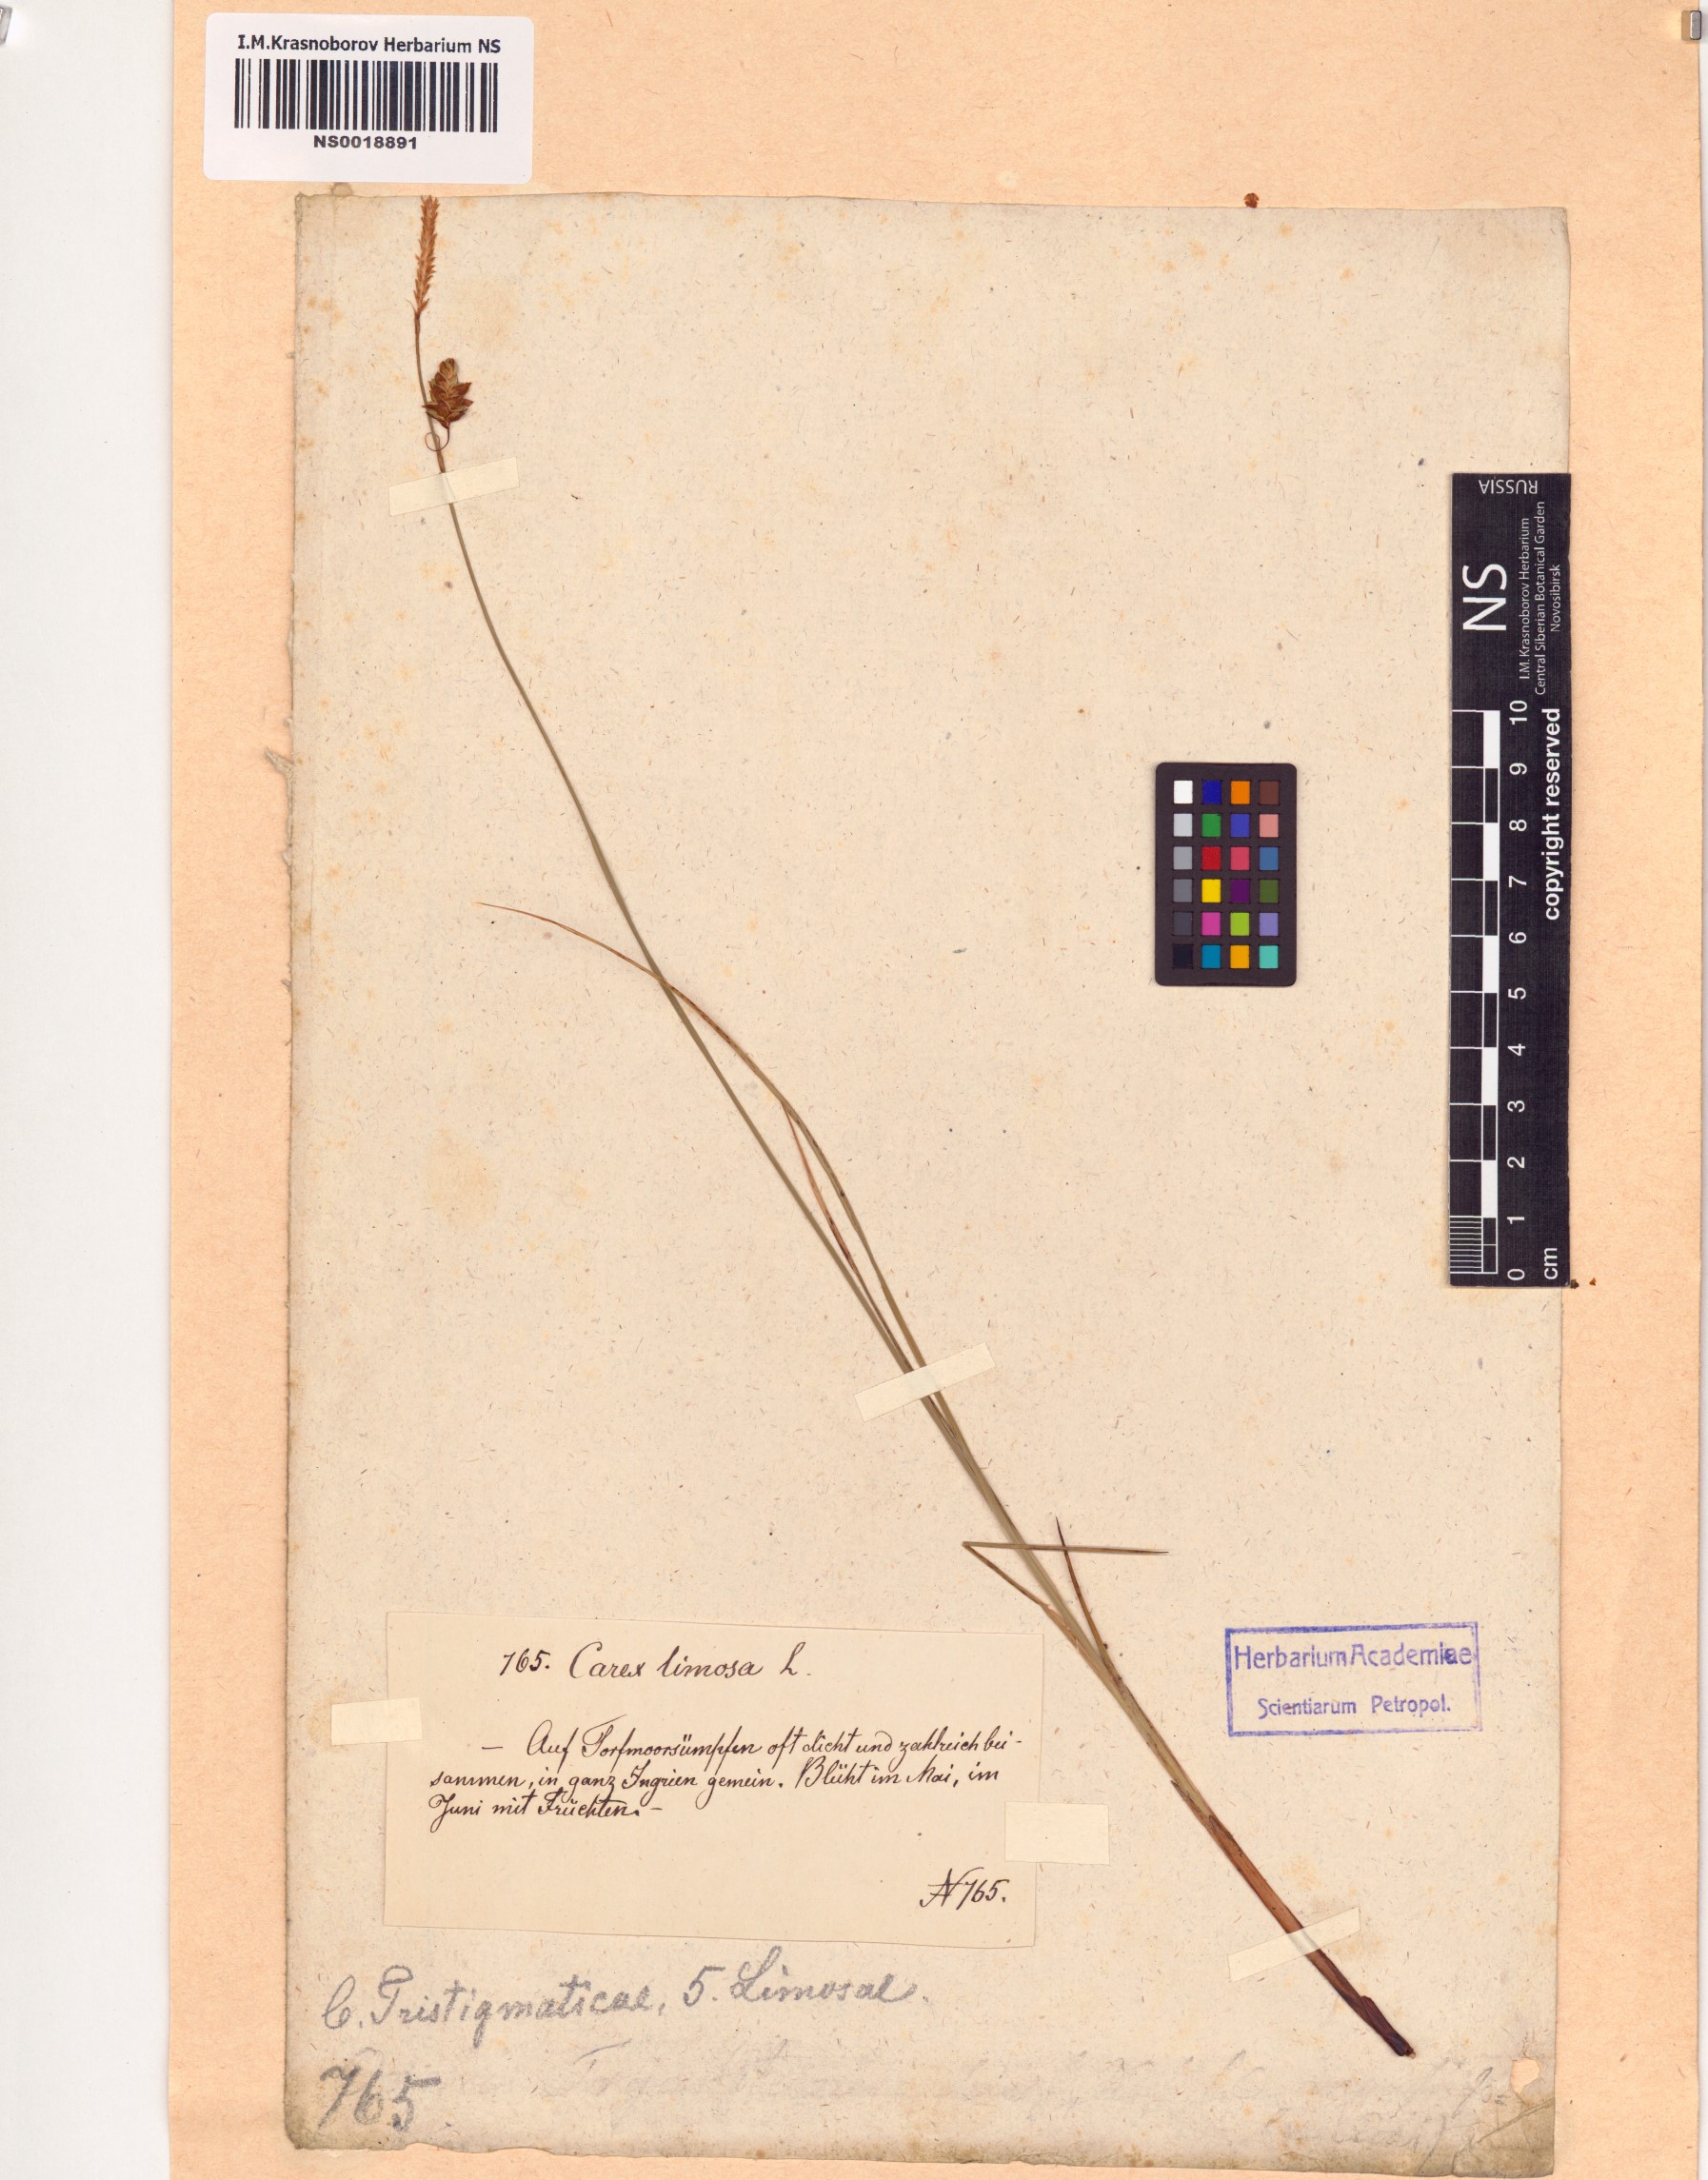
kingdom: Plantae
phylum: Tracheophyta
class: Liliopsida
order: Poales
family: Cyperaceae
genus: Carex
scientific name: Carex limosa
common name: Bog sedge
